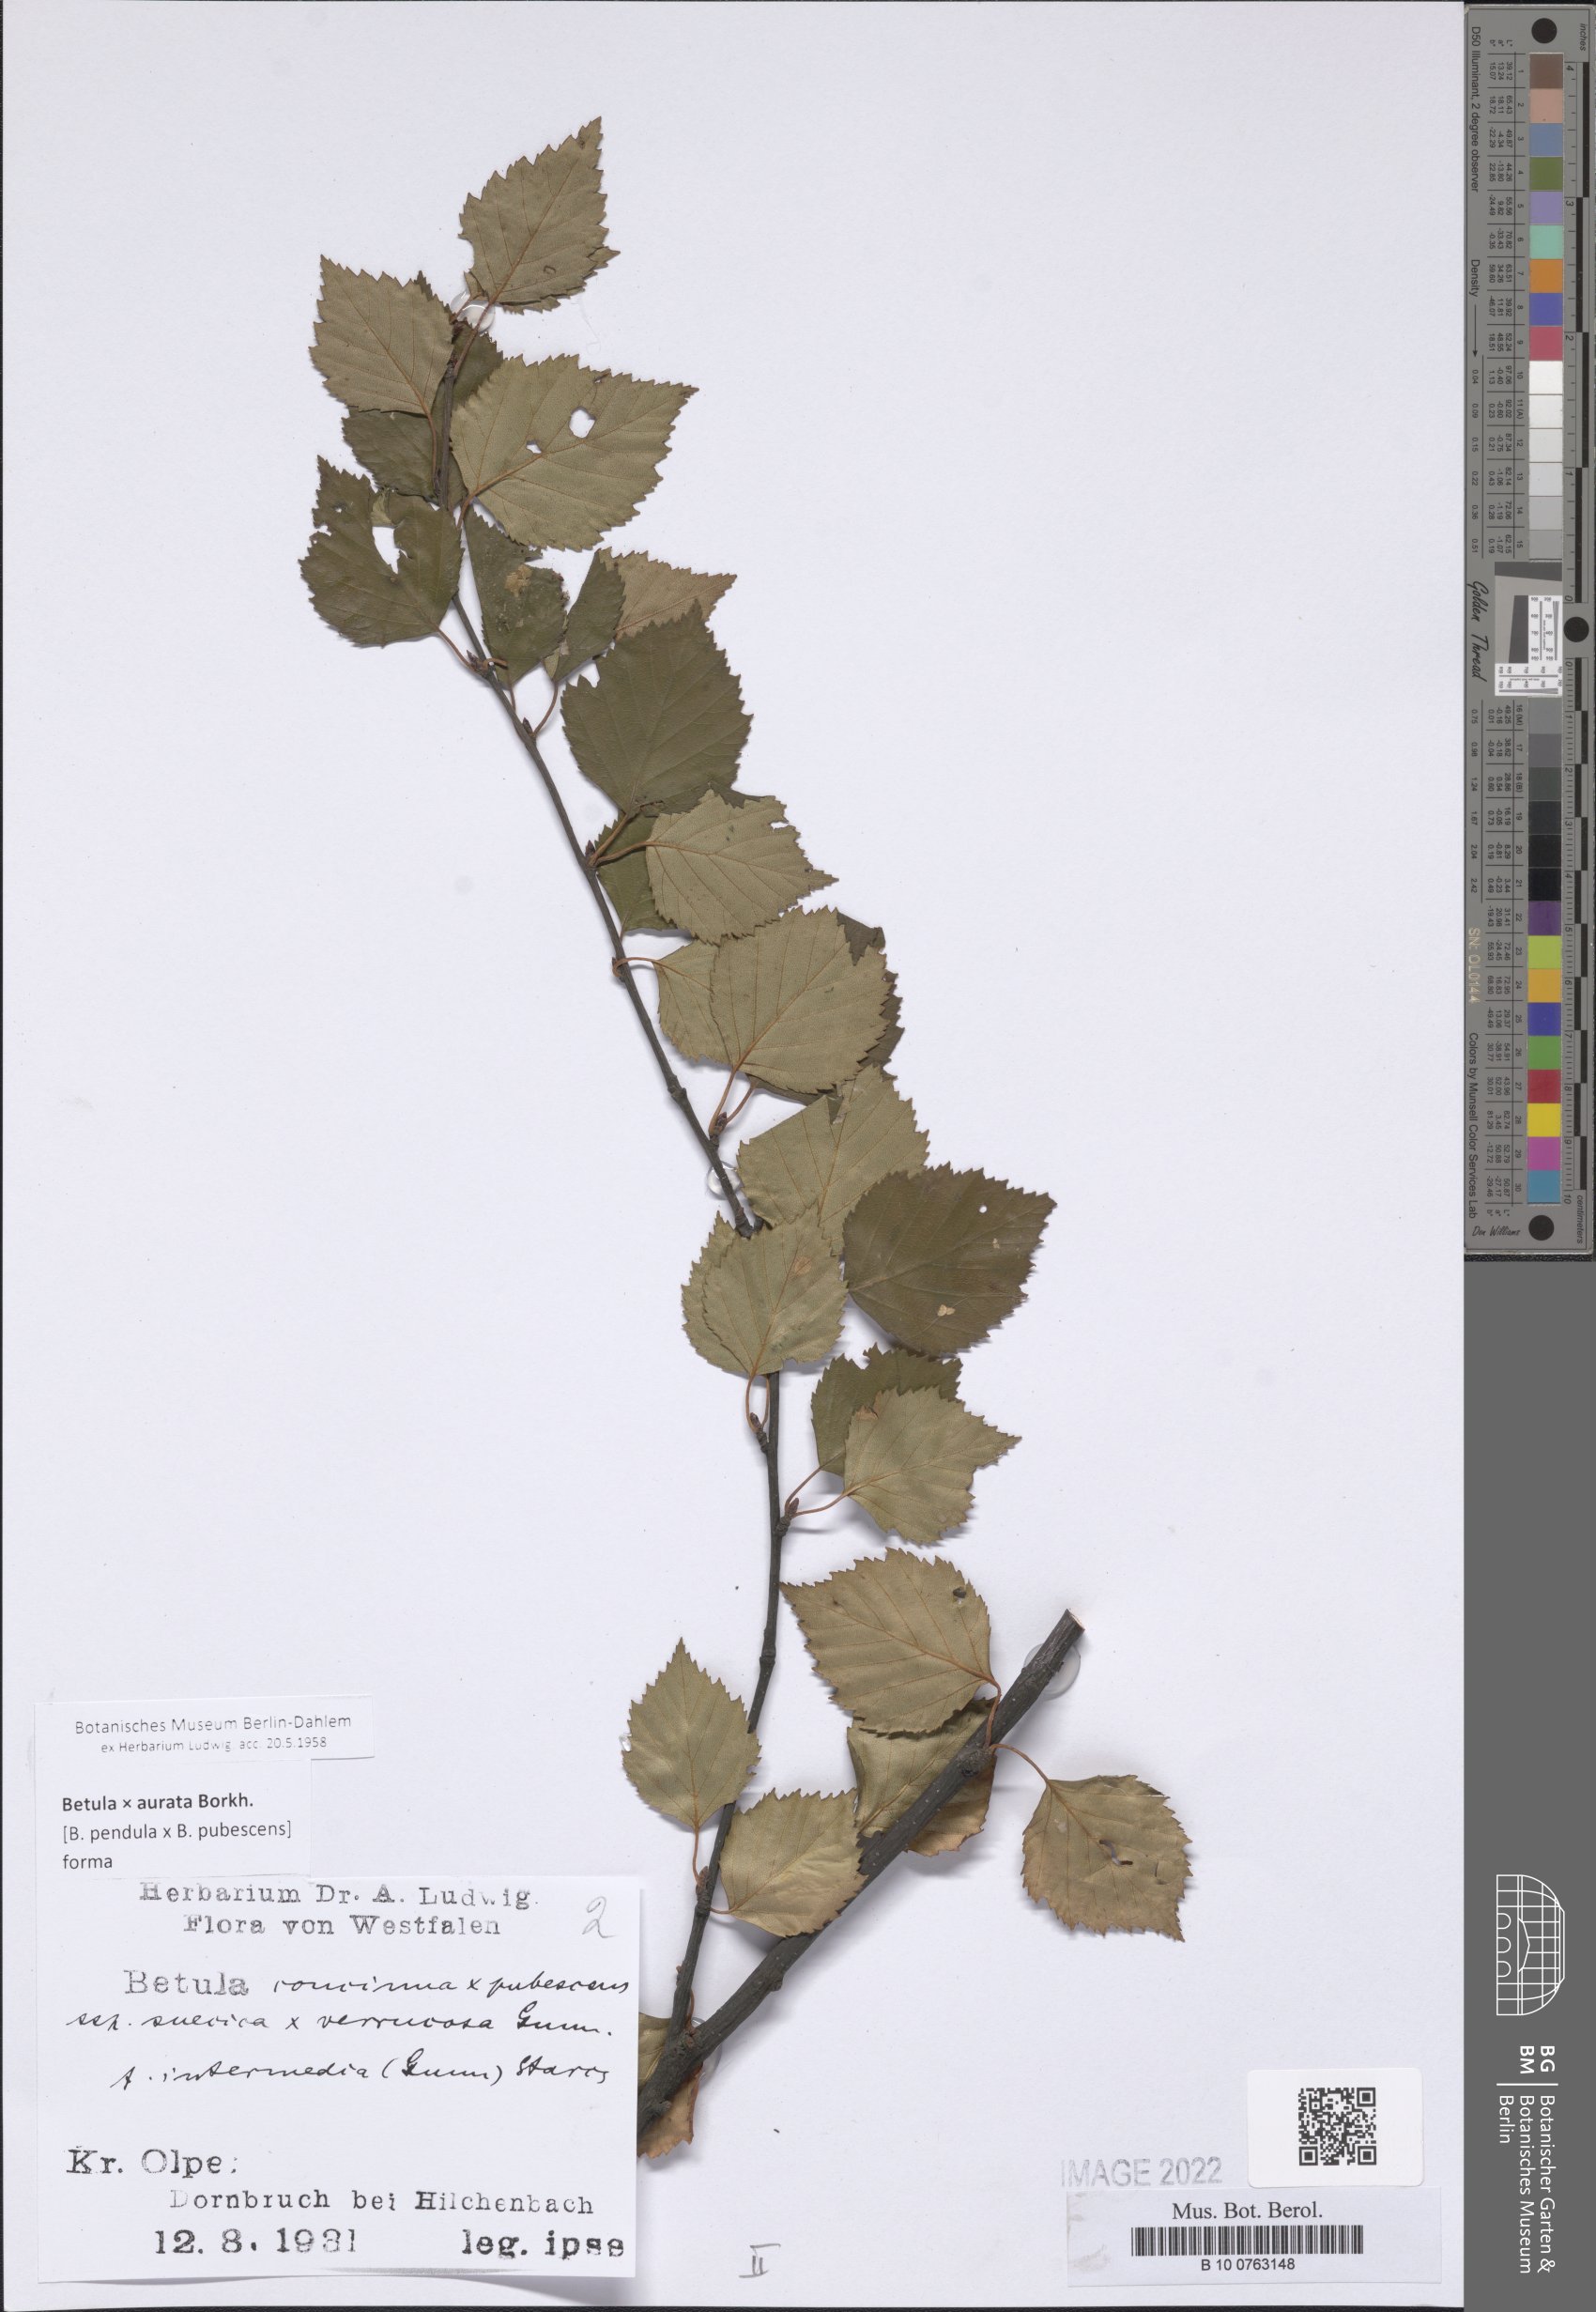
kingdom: Plantae
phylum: Tracheophyta
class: Magnoliopsida
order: Santalales
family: Loranthaceae
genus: Tristerix
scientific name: Tristerix
